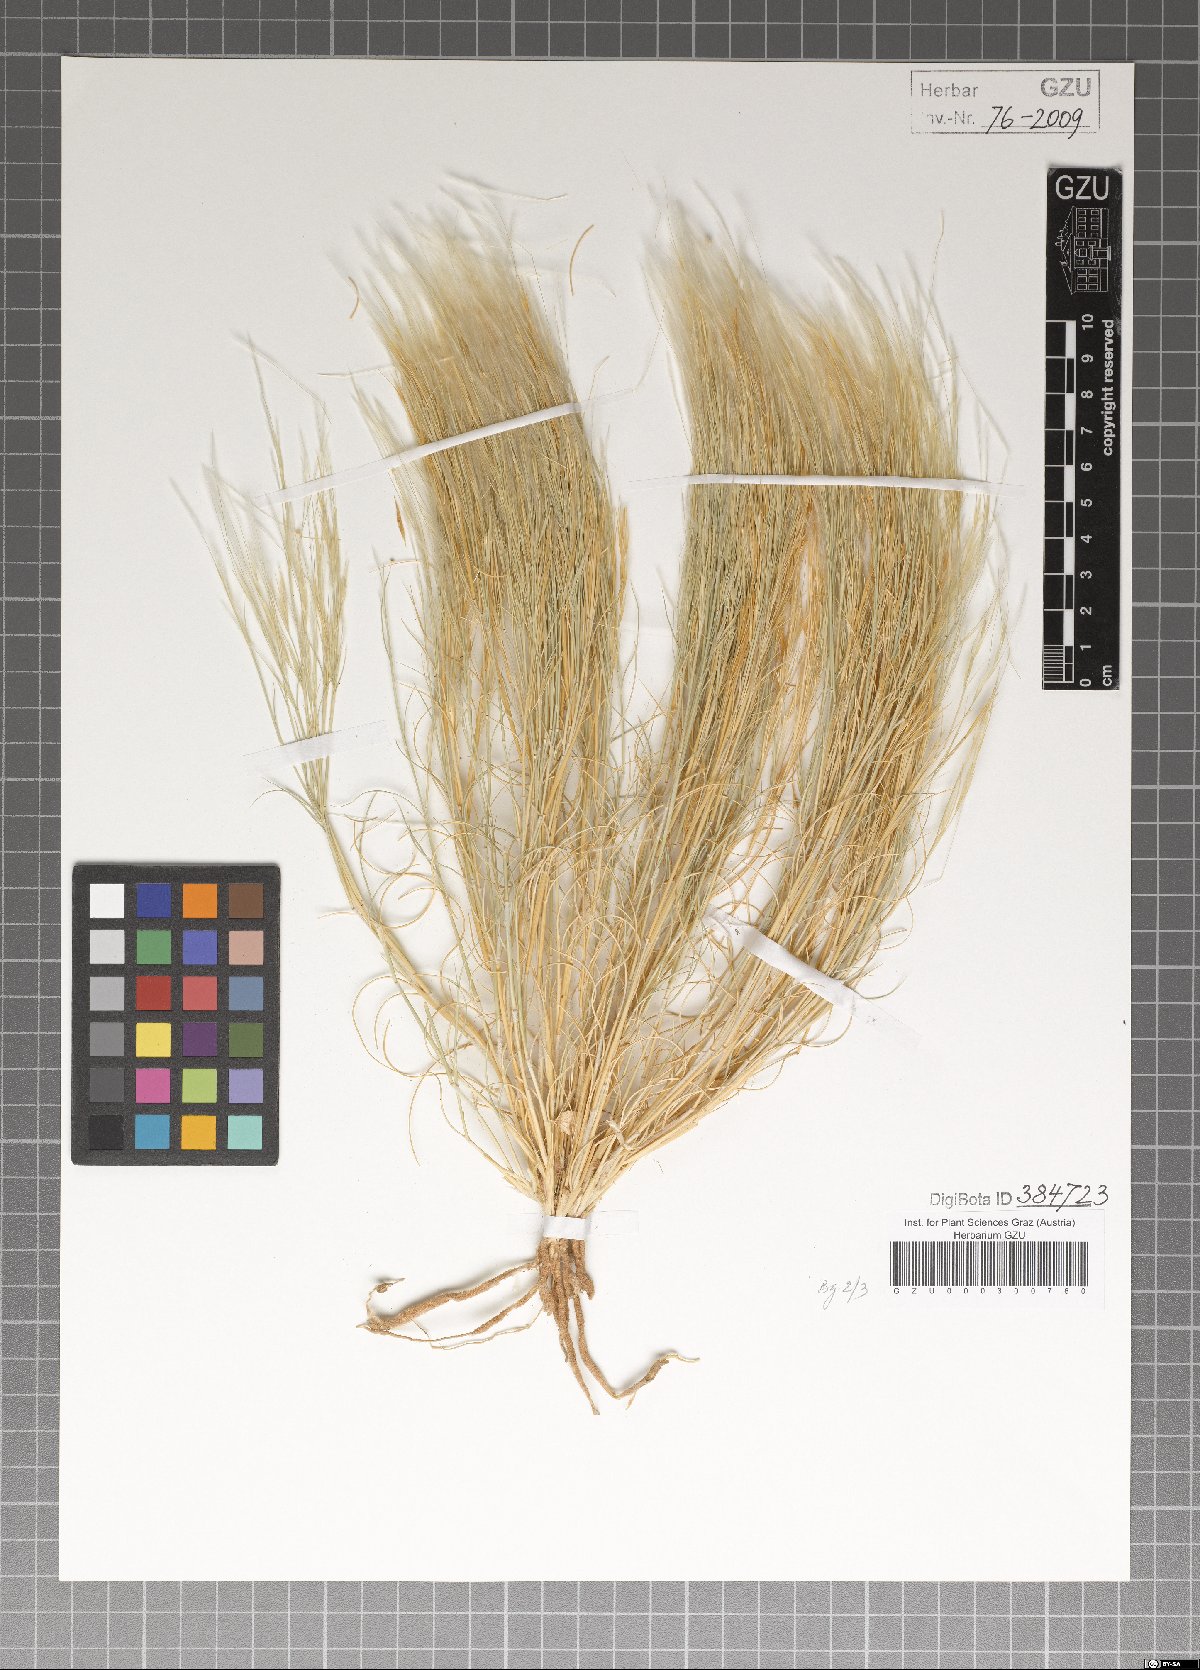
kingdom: Plantae
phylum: Tracheophyta
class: Liliopsida
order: Poales
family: Poaceae
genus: Stipagrostis
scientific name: Stipagrostis plumosa
